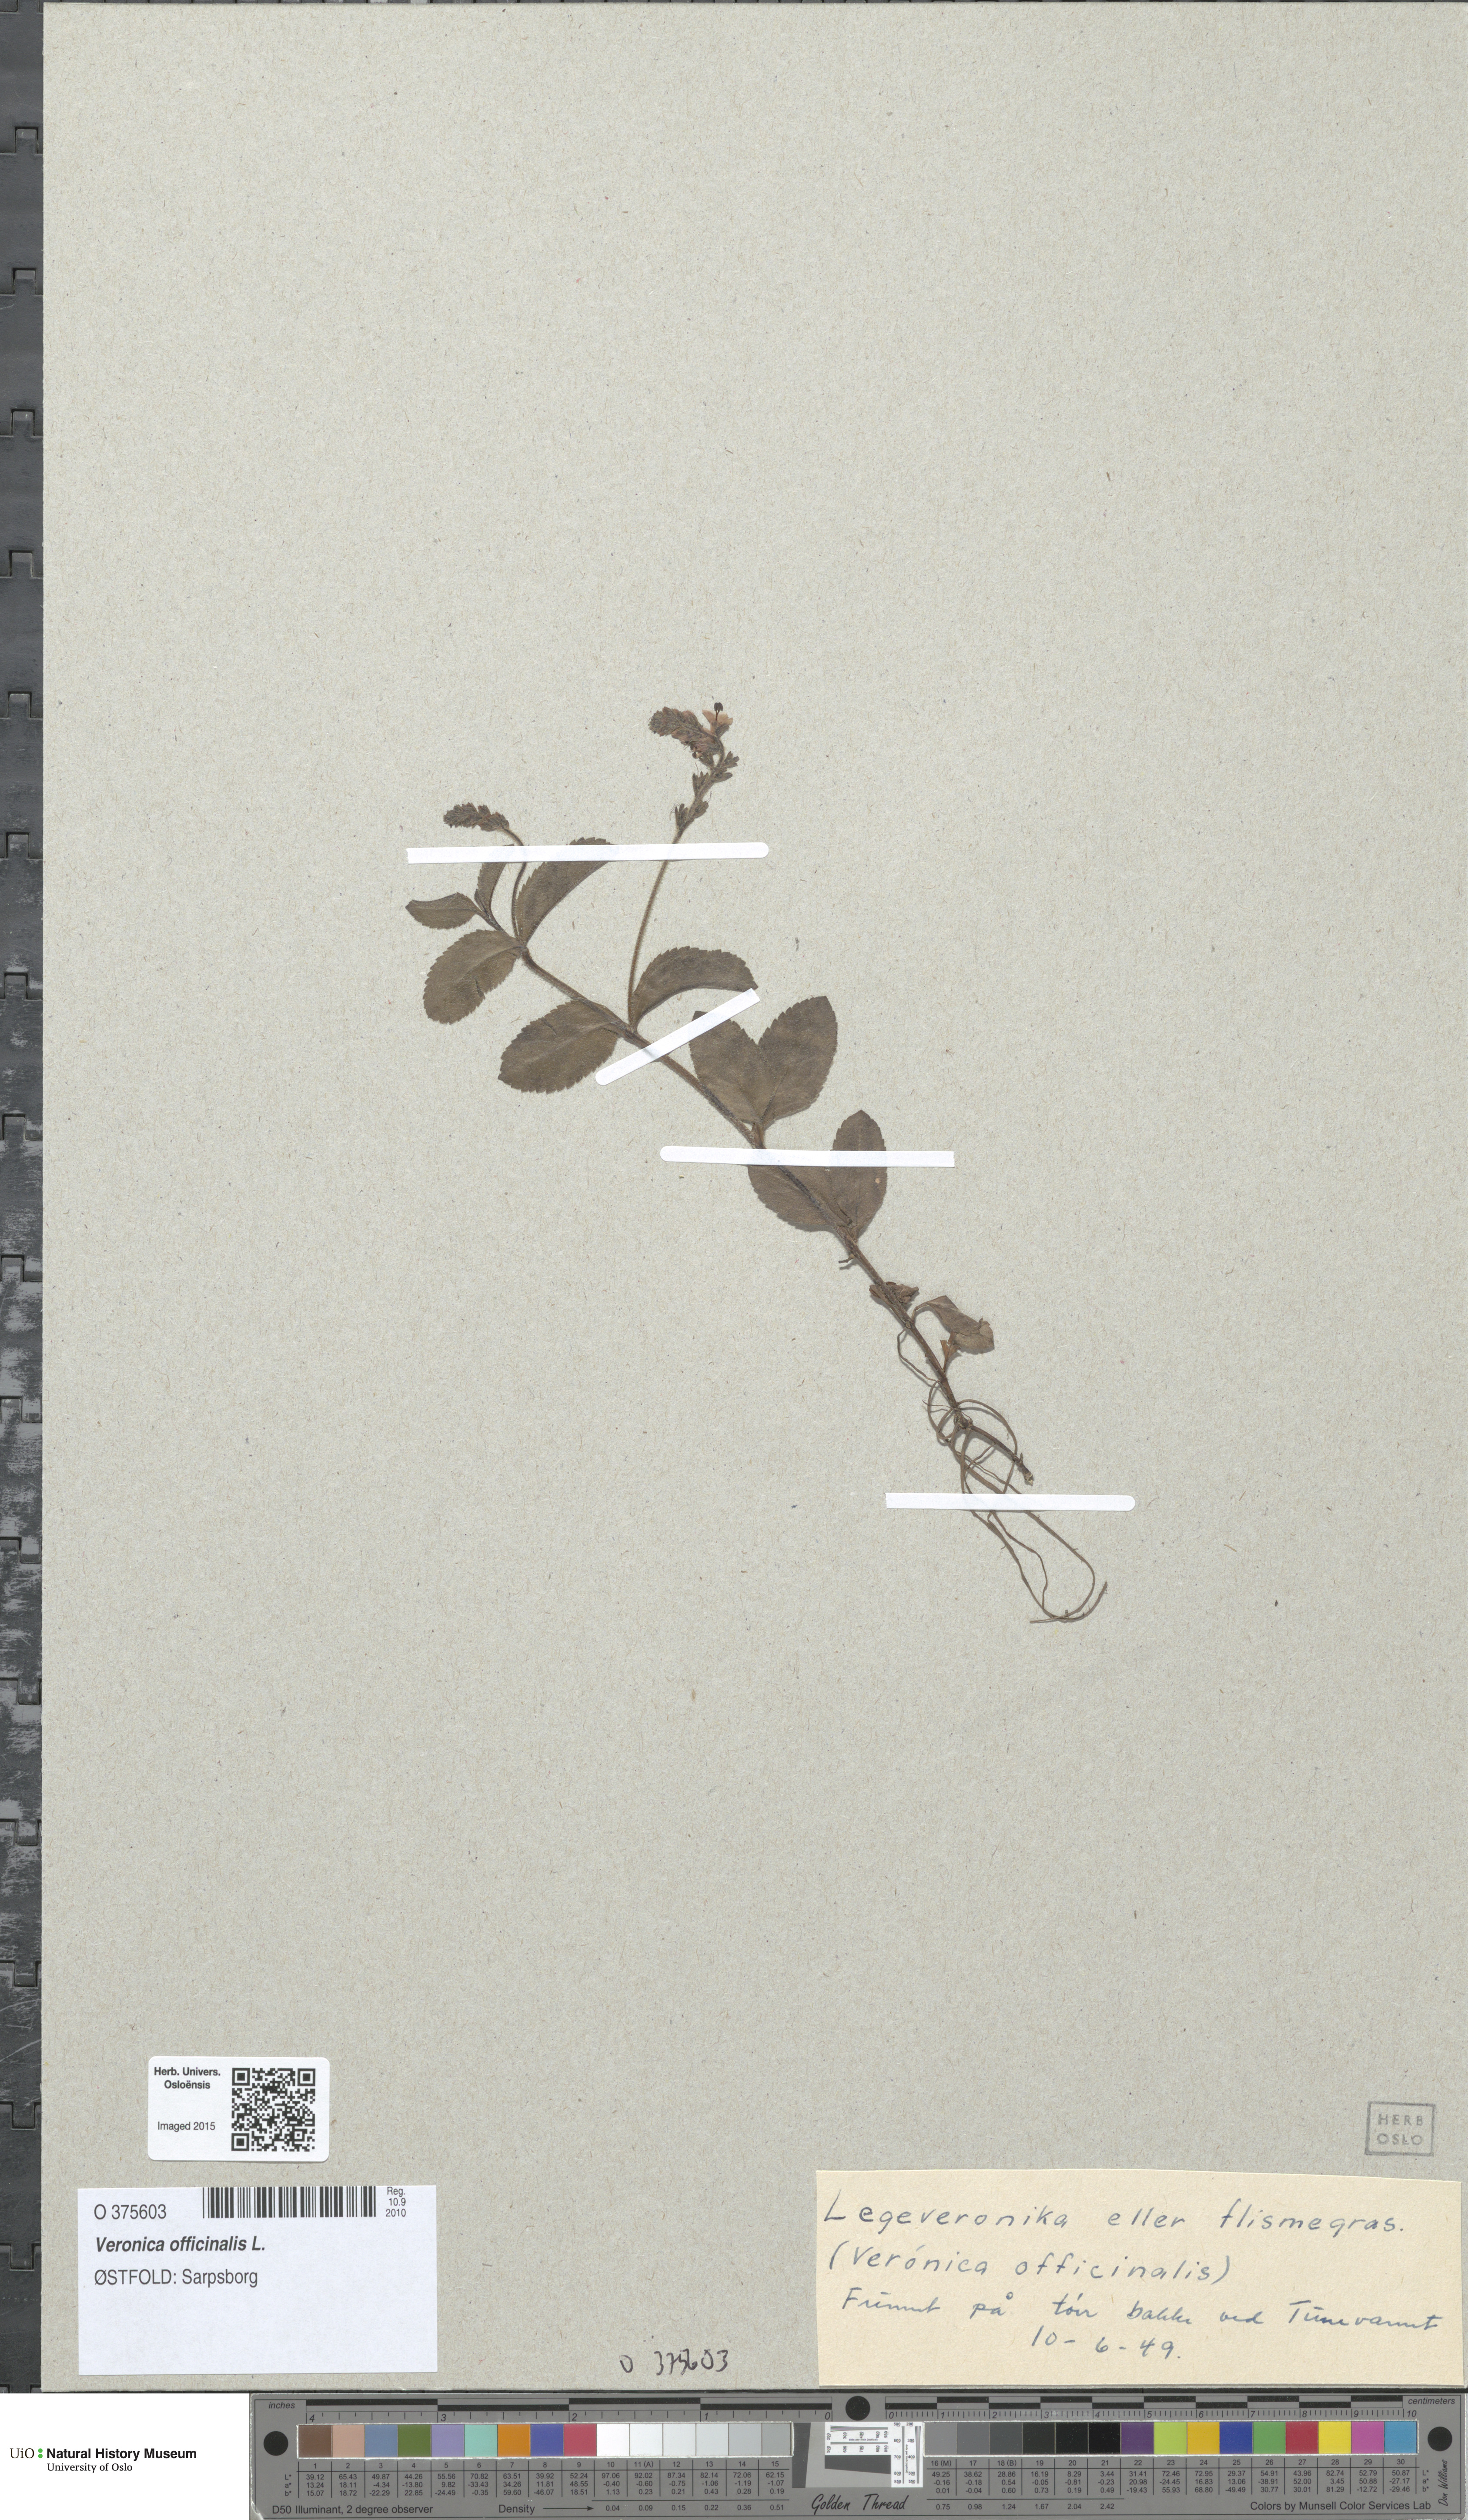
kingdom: Plantae
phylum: Tracheophyta
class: Magnoliopsida
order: Lamiales
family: Plantaginaceae
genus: Veronica
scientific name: Veronica officinalis
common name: Common speedwell
